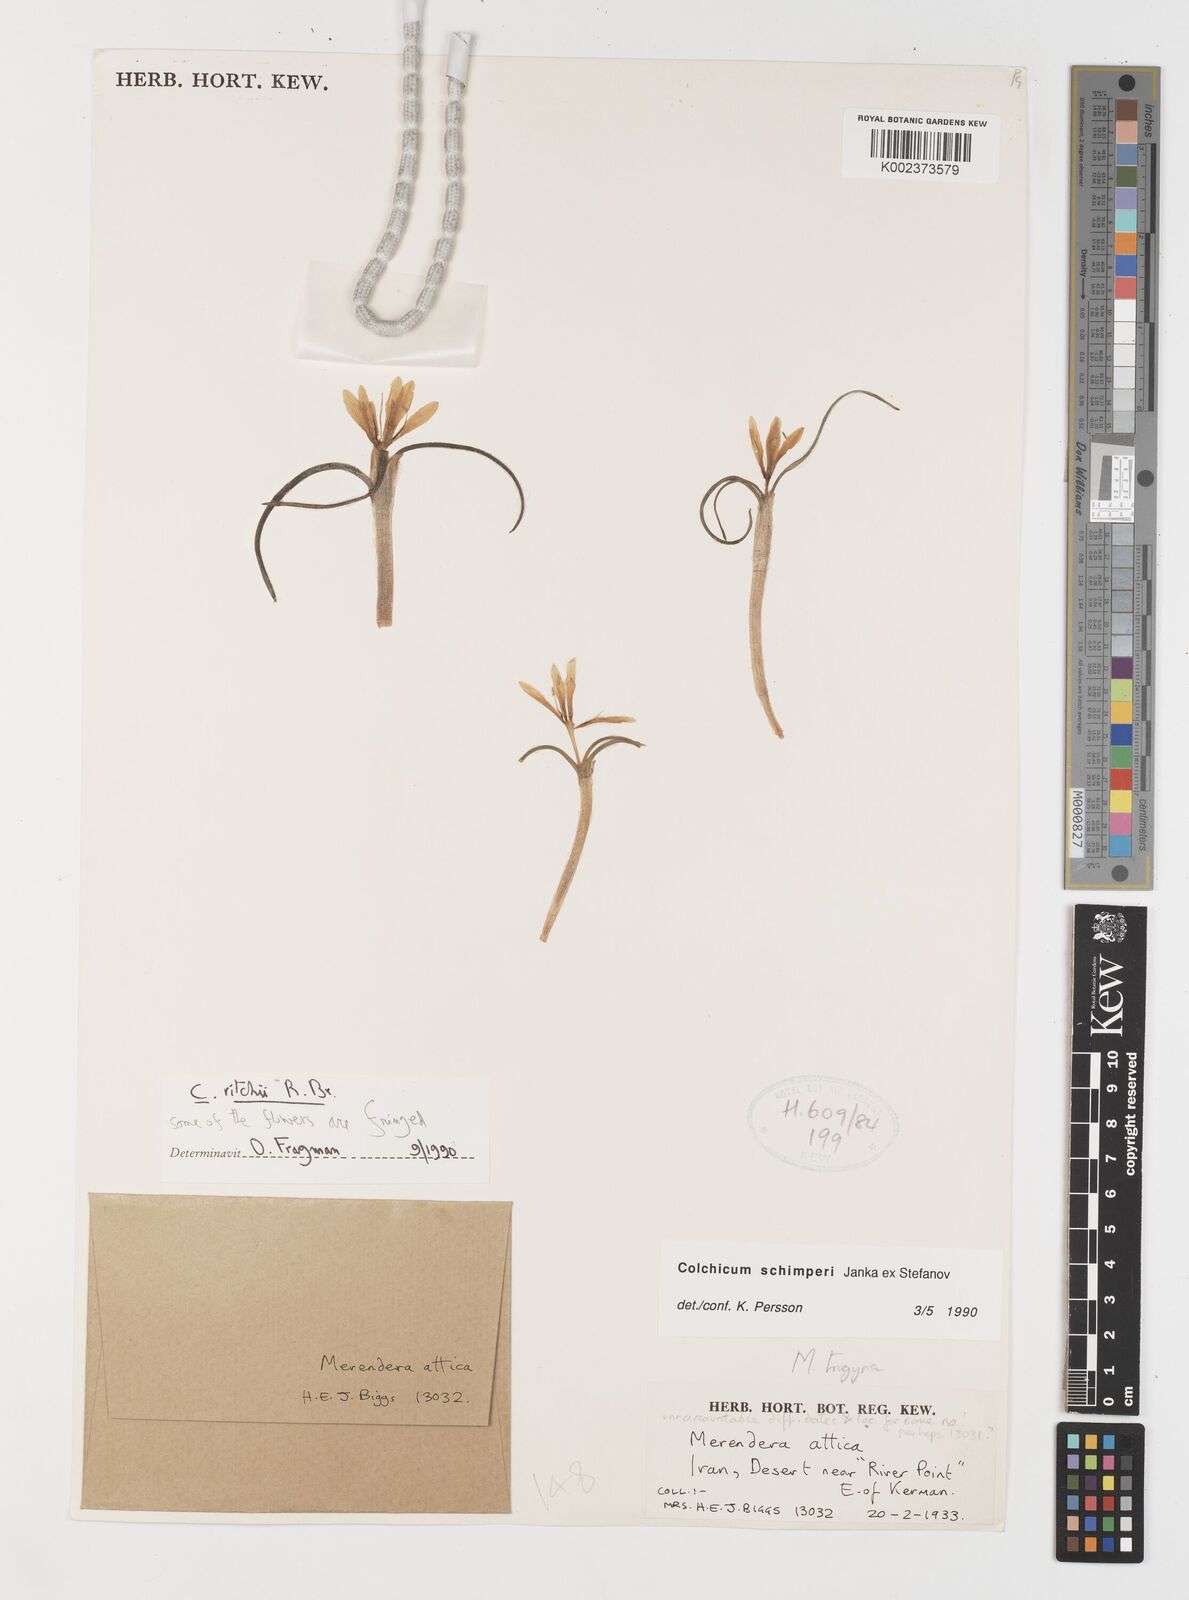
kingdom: Plantae
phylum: Tracheophyta
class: Liliopsida
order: Liliales
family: Colchicaceae
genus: Colchicum
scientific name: Colchicum schimperi
